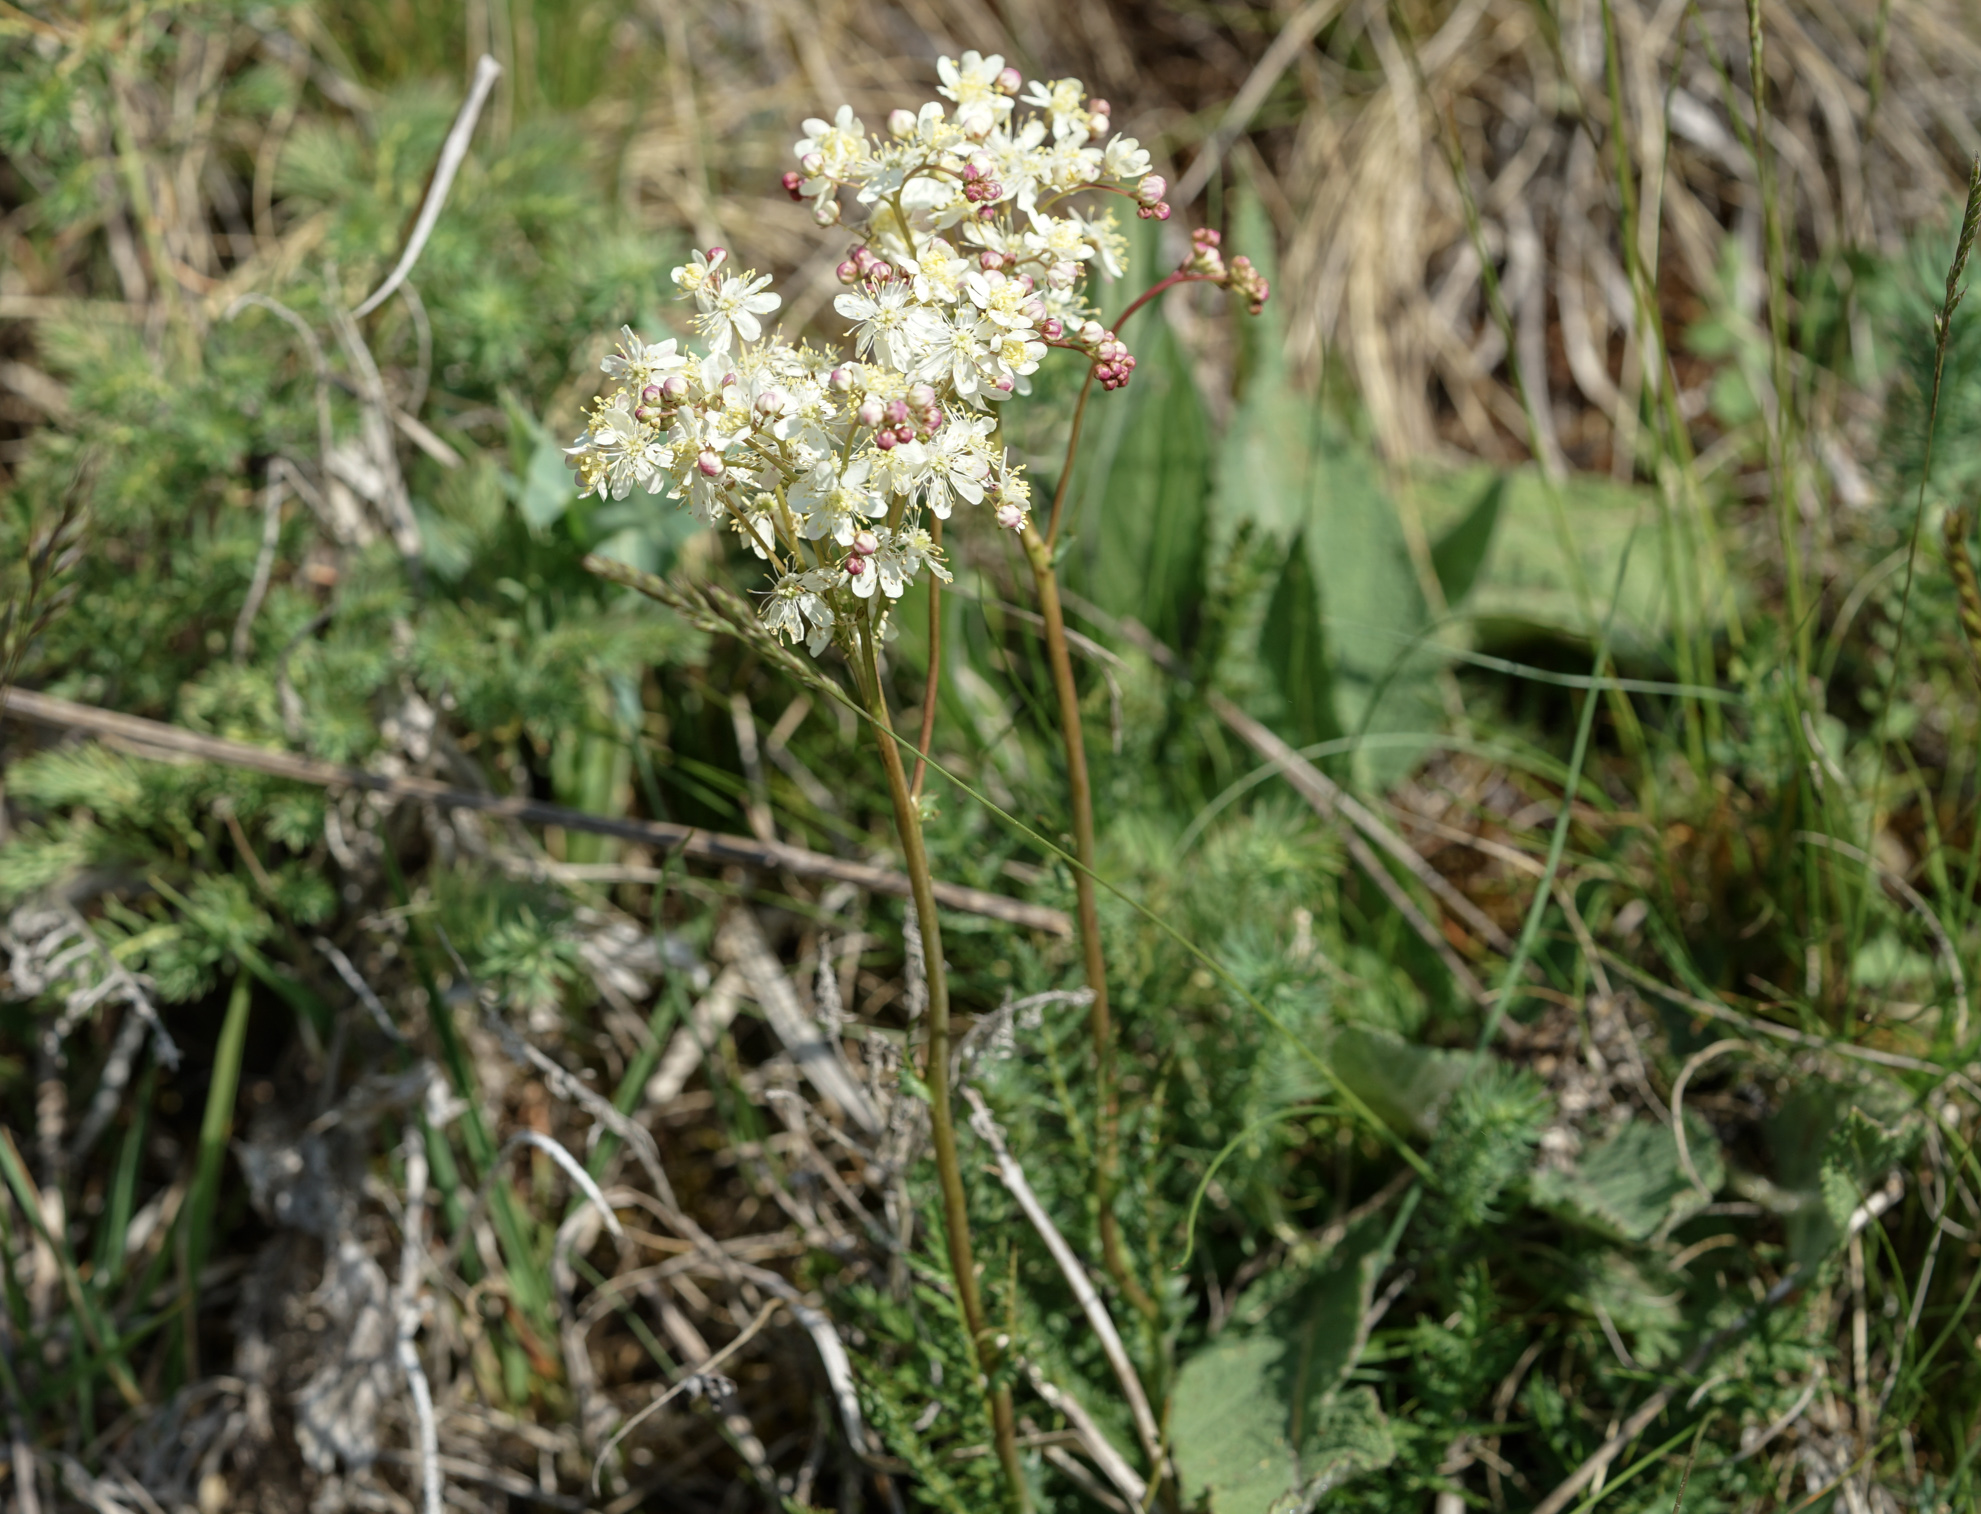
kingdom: Plantae
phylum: Tracheophyta
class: Magnoliopsida
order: Rosales
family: Rosaceae
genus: Filipendula
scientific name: Filipendula vulgaris
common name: Dropwort
